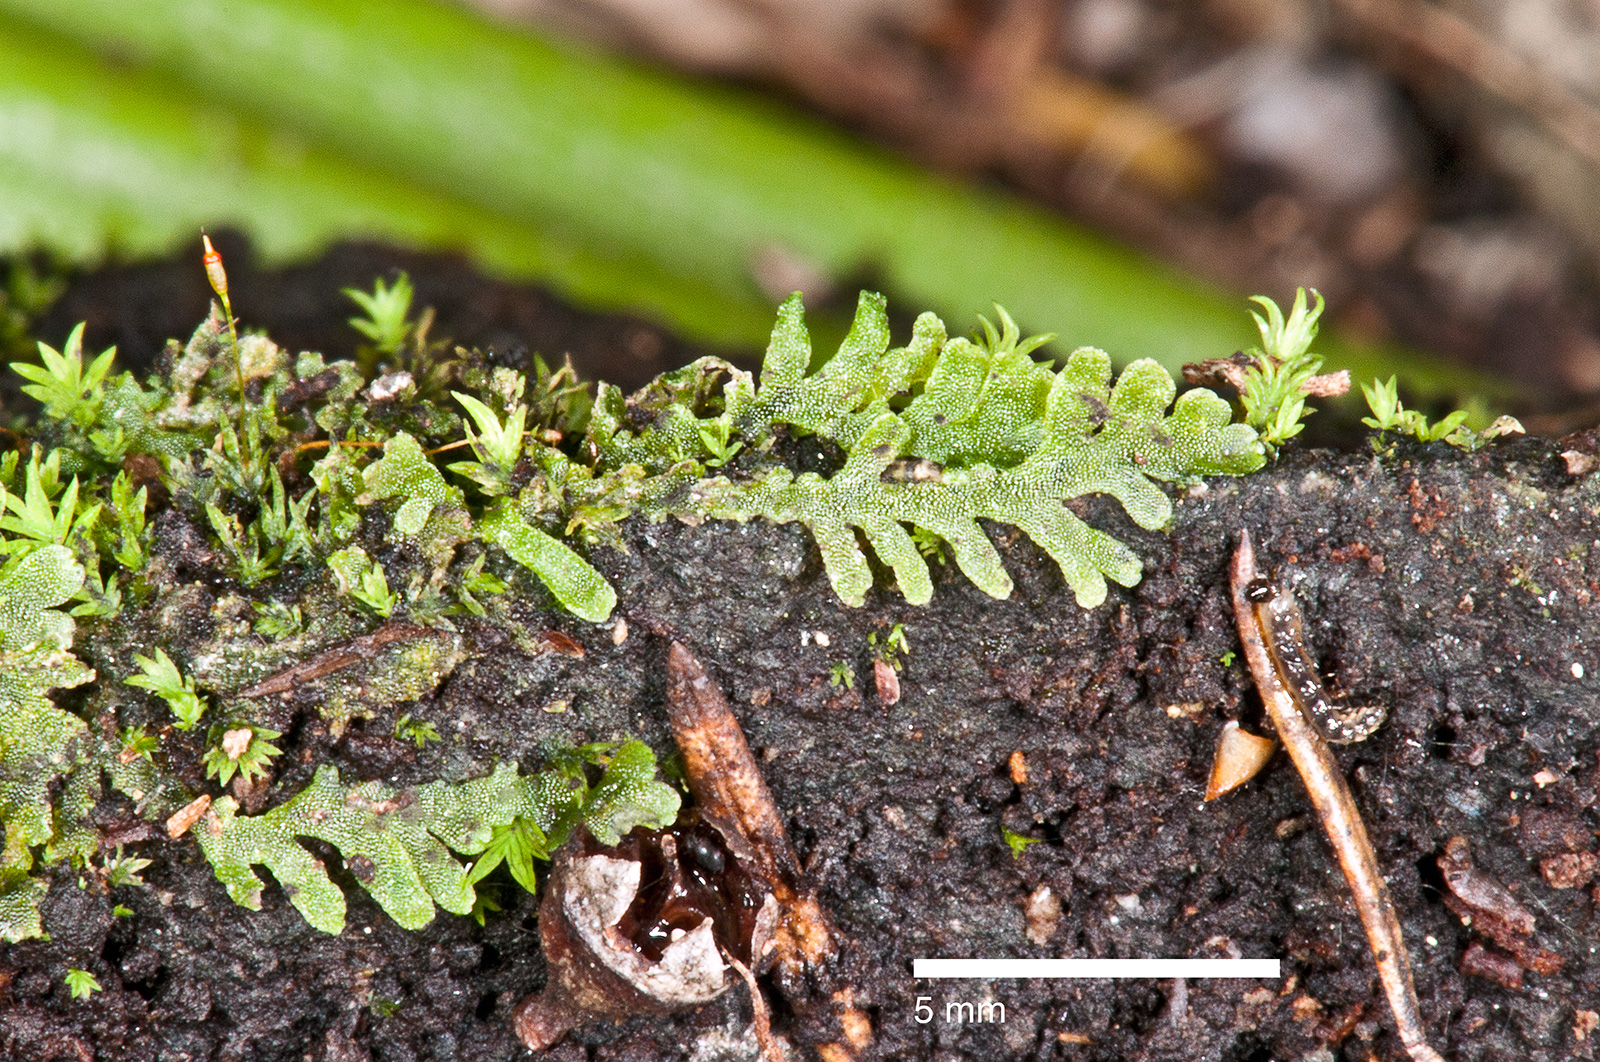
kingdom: Plantae
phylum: Marchantiophyta
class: Jungermanniopsida
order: Metzgeriales
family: Aneuraceae
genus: Riccardia
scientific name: Riccardia
